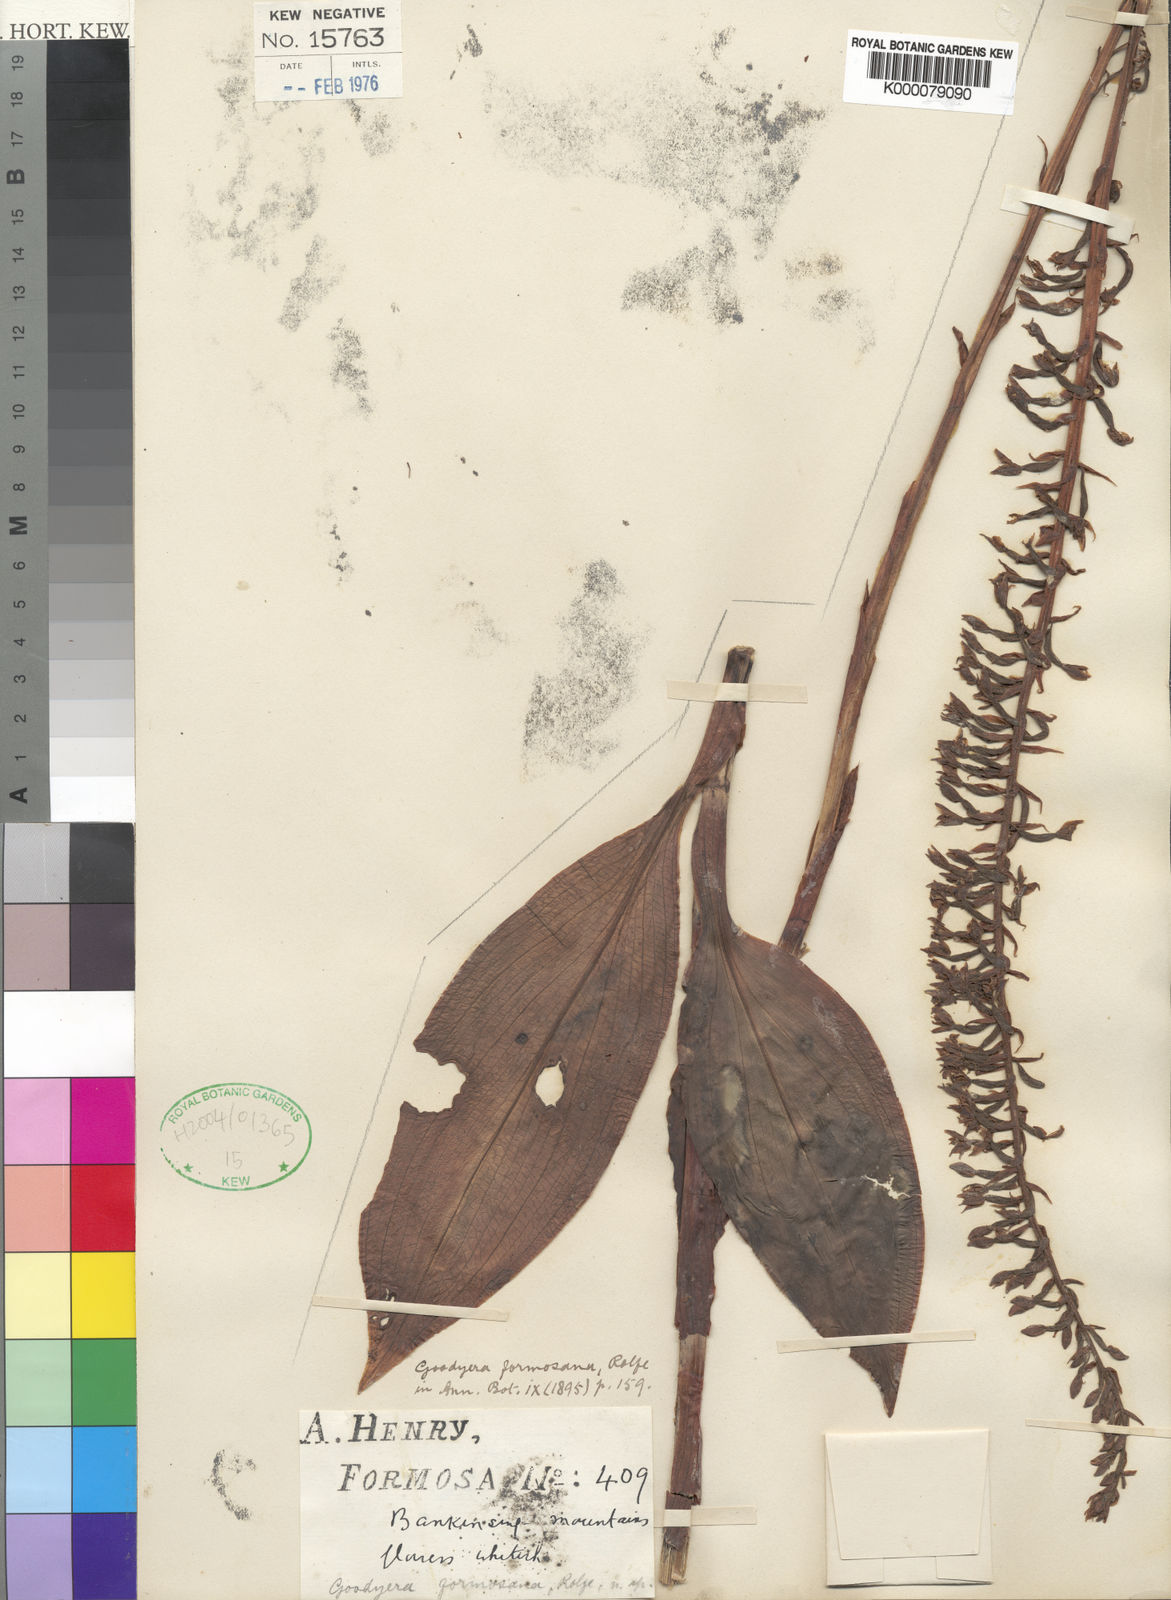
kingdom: Plantae
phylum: Tracheophyta
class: Liliopsida
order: Asparagales
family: Orchidaceae
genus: Goodyera
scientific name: Goodyera fumata
